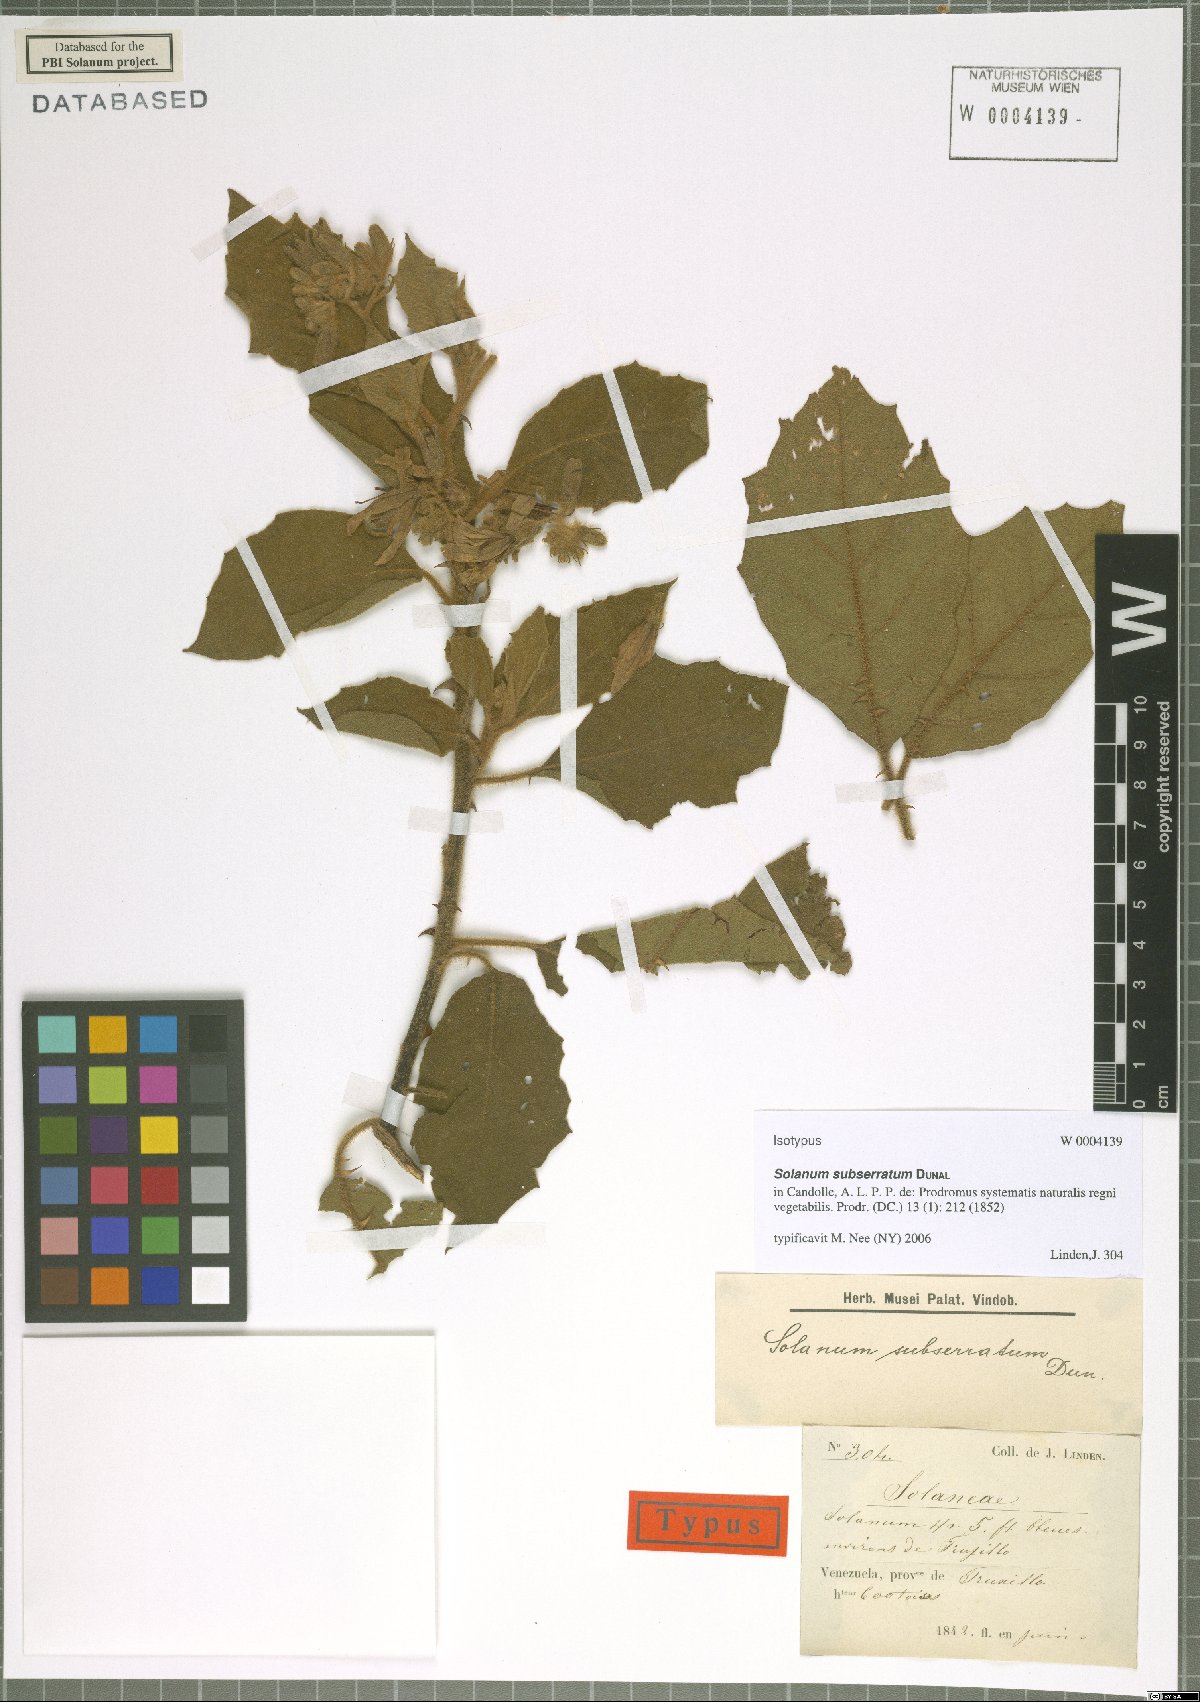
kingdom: Plantae
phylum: Tracheophyta
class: Magnoliopsida
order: Solanales
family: Solanaceae
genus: Solanum
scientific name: Solanum subserratum
